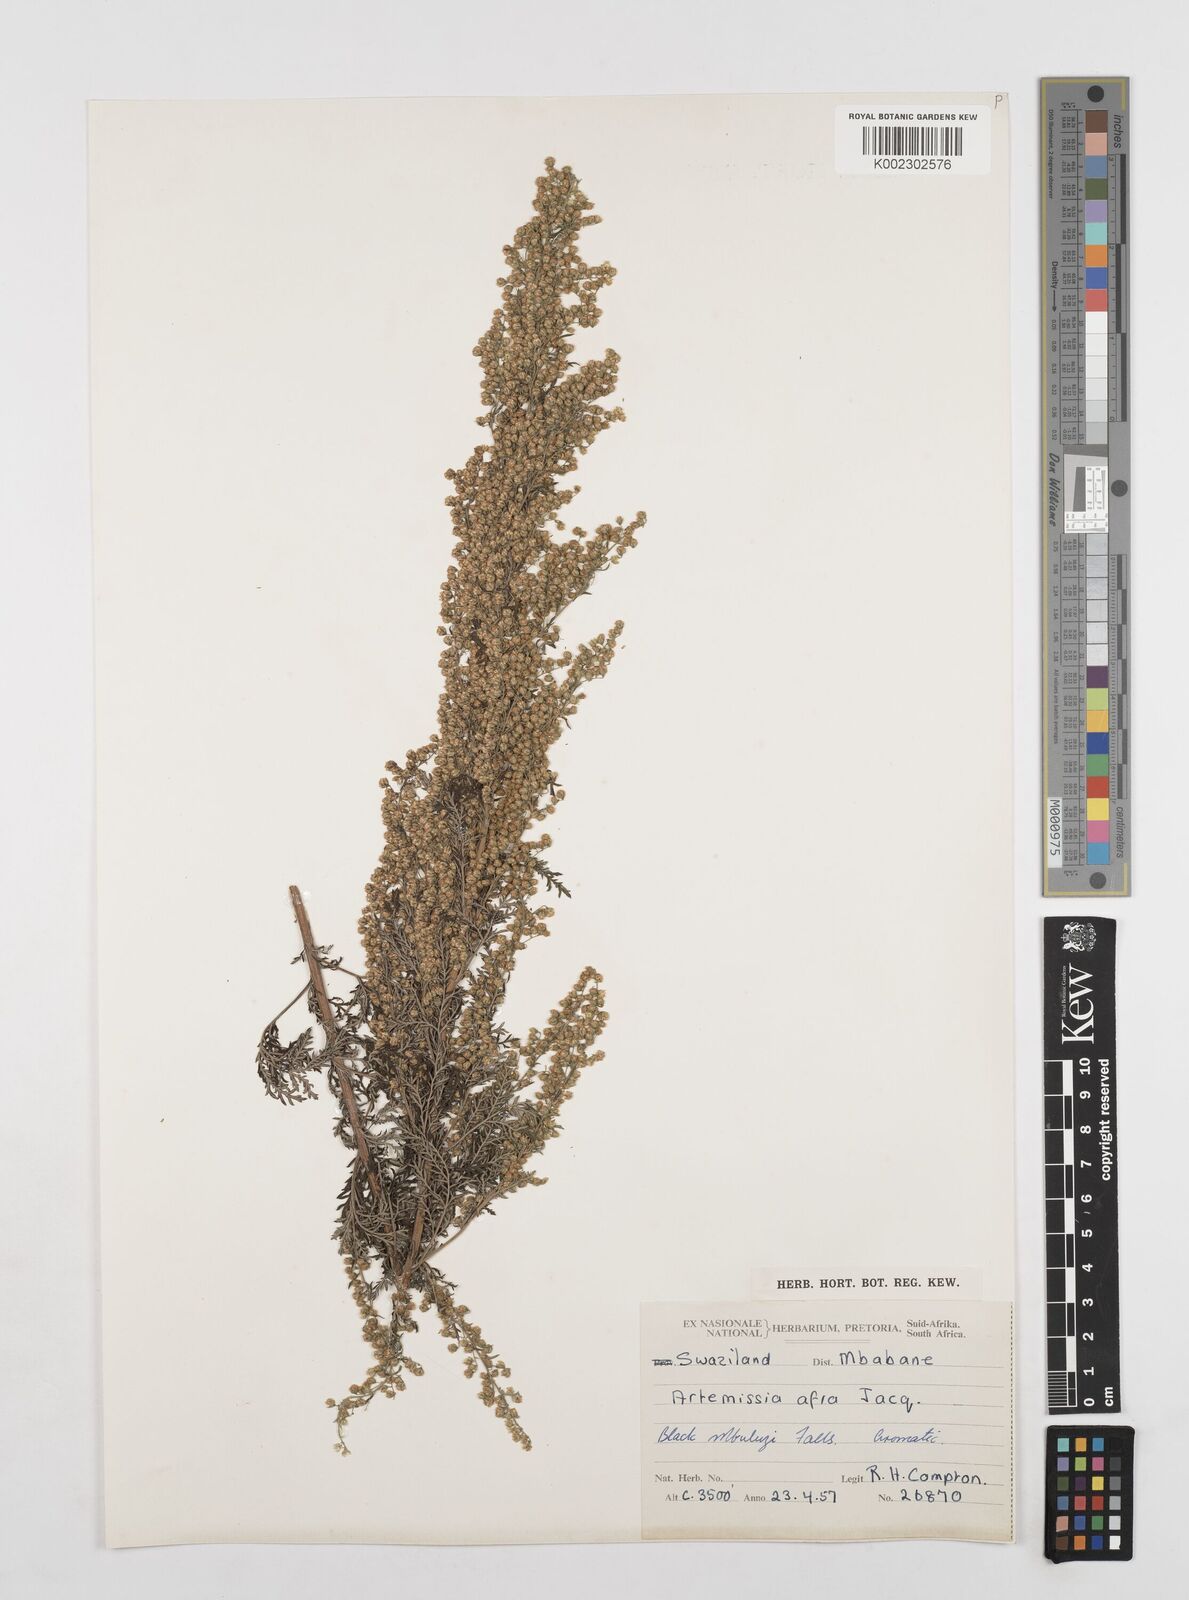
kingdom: Plantae
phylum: Tracheophyta
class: Magnoliopsida
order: Asterales
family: Asteraceae
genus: Artemisia
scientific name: Artemisia afra
